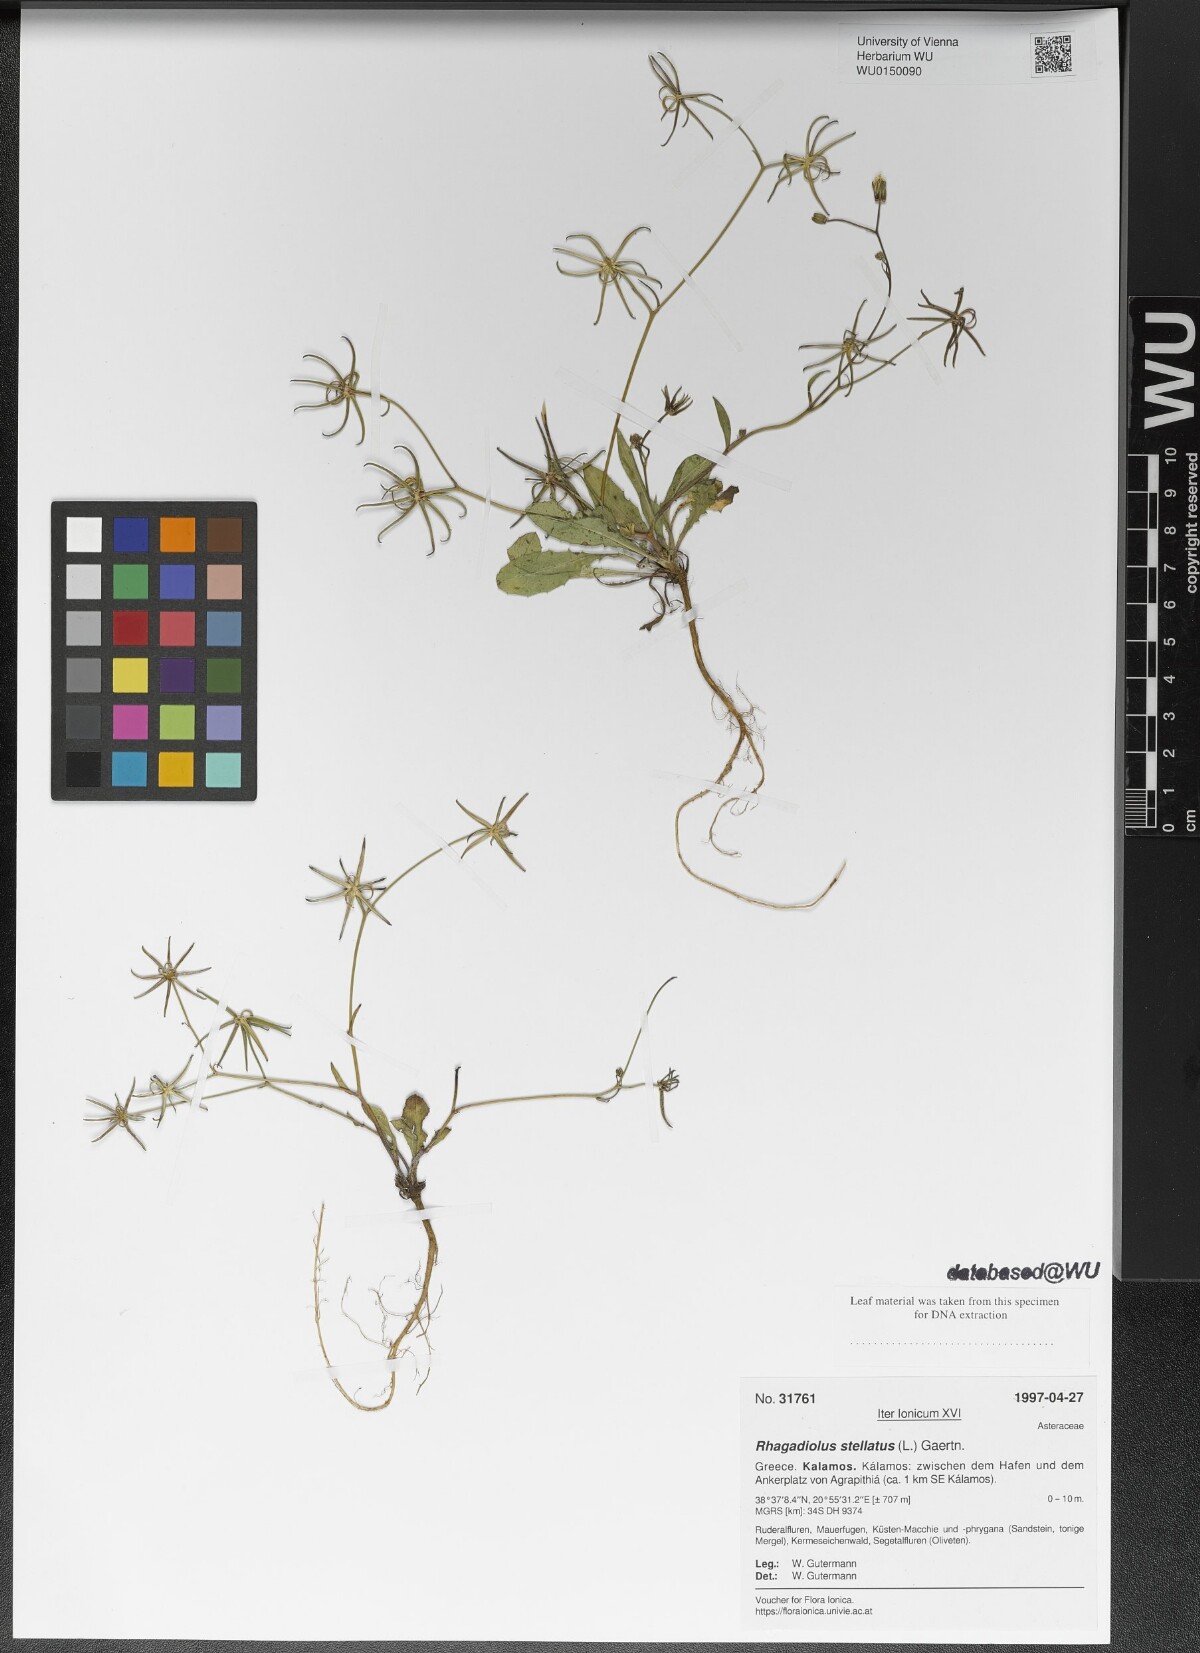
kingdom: Plantae
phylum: Tracheophyta
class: Magnoliopsida
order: Asterales
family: Asteraceae
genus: Rhagadiolus
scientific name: Rhagadiolus stellatus
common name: Star hawkbit
